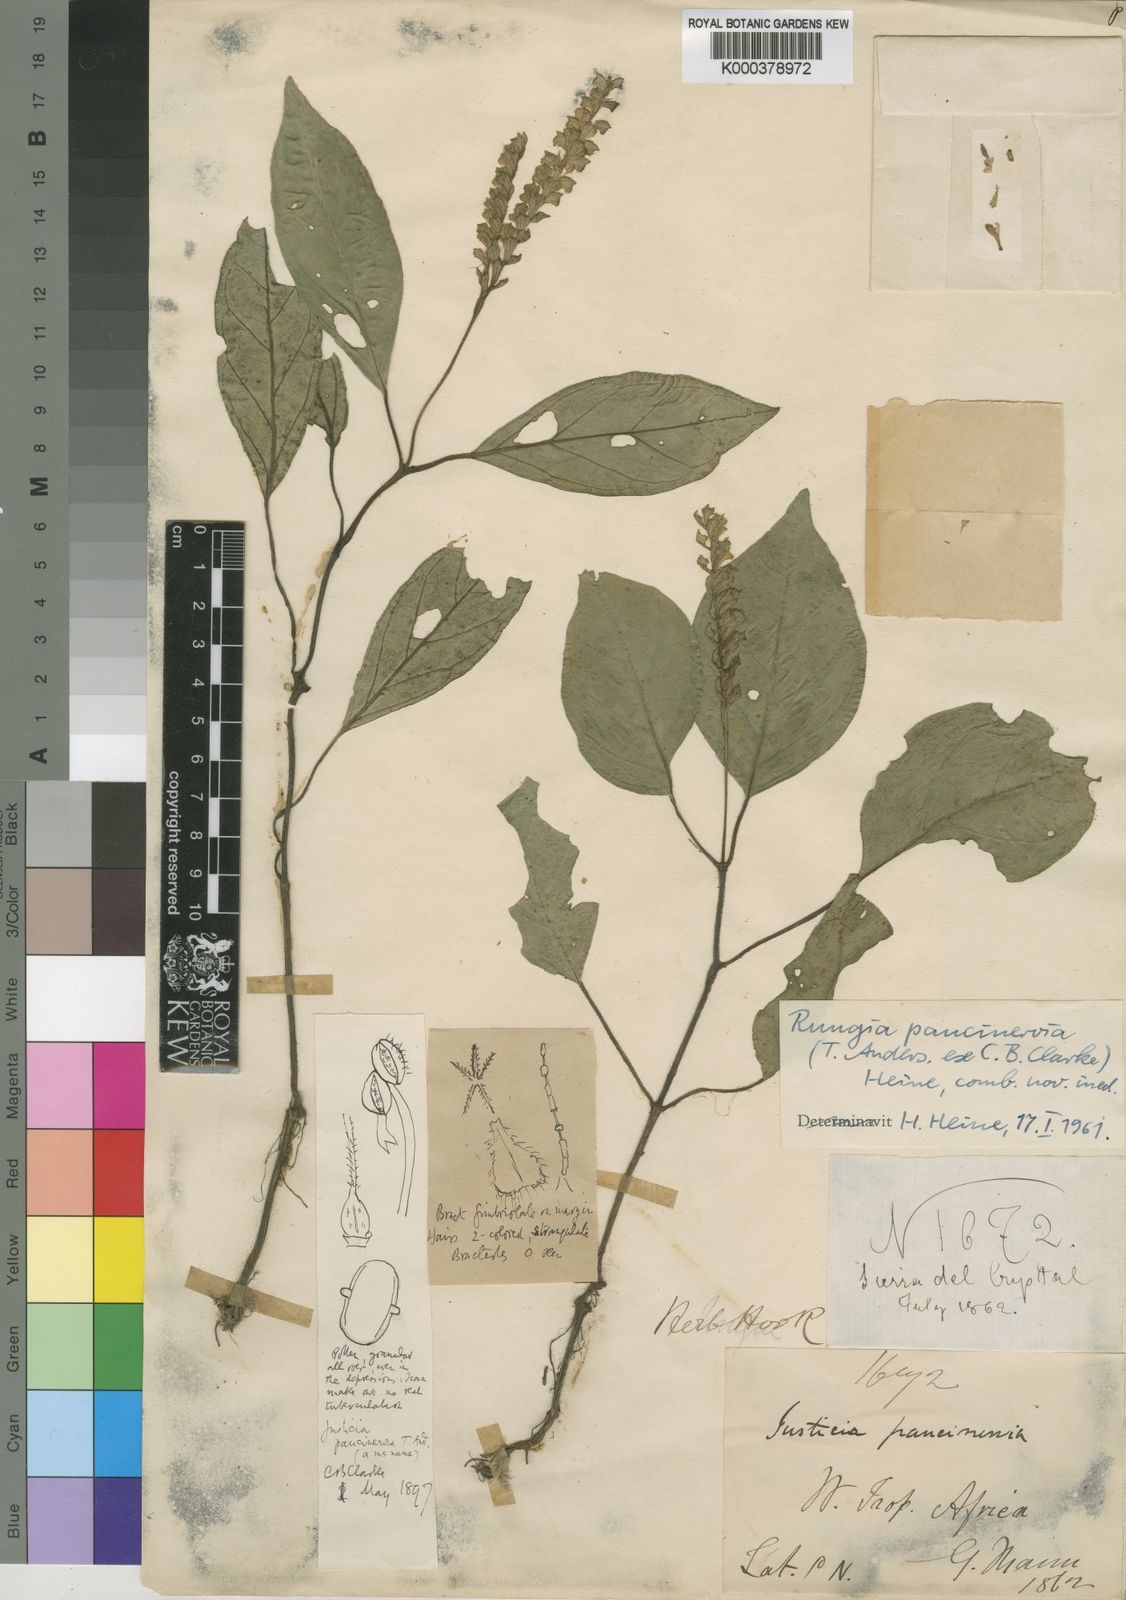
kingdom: Plantae
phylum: Tracheophyta
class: Magnoliopsida
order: Lamiales
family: Acanthaceae
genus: Ascotheca
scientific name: Ascotheca paucinervia
